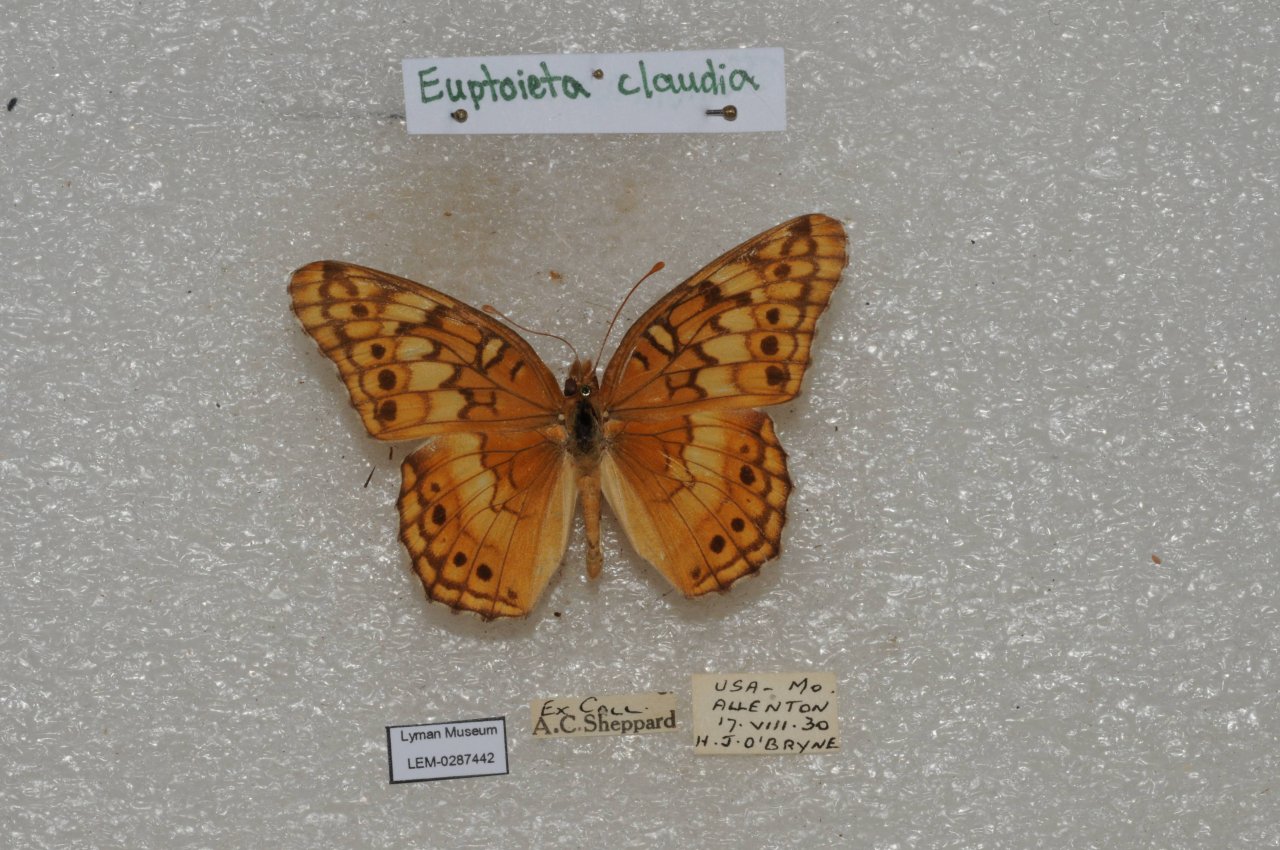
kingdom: Animalia
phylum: Arthropoda
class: Insecta
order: Lepidoptera
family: Nymphalidae
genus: Euptoieta
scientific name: Euptoieta claudia
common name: Variegated Fritillary
